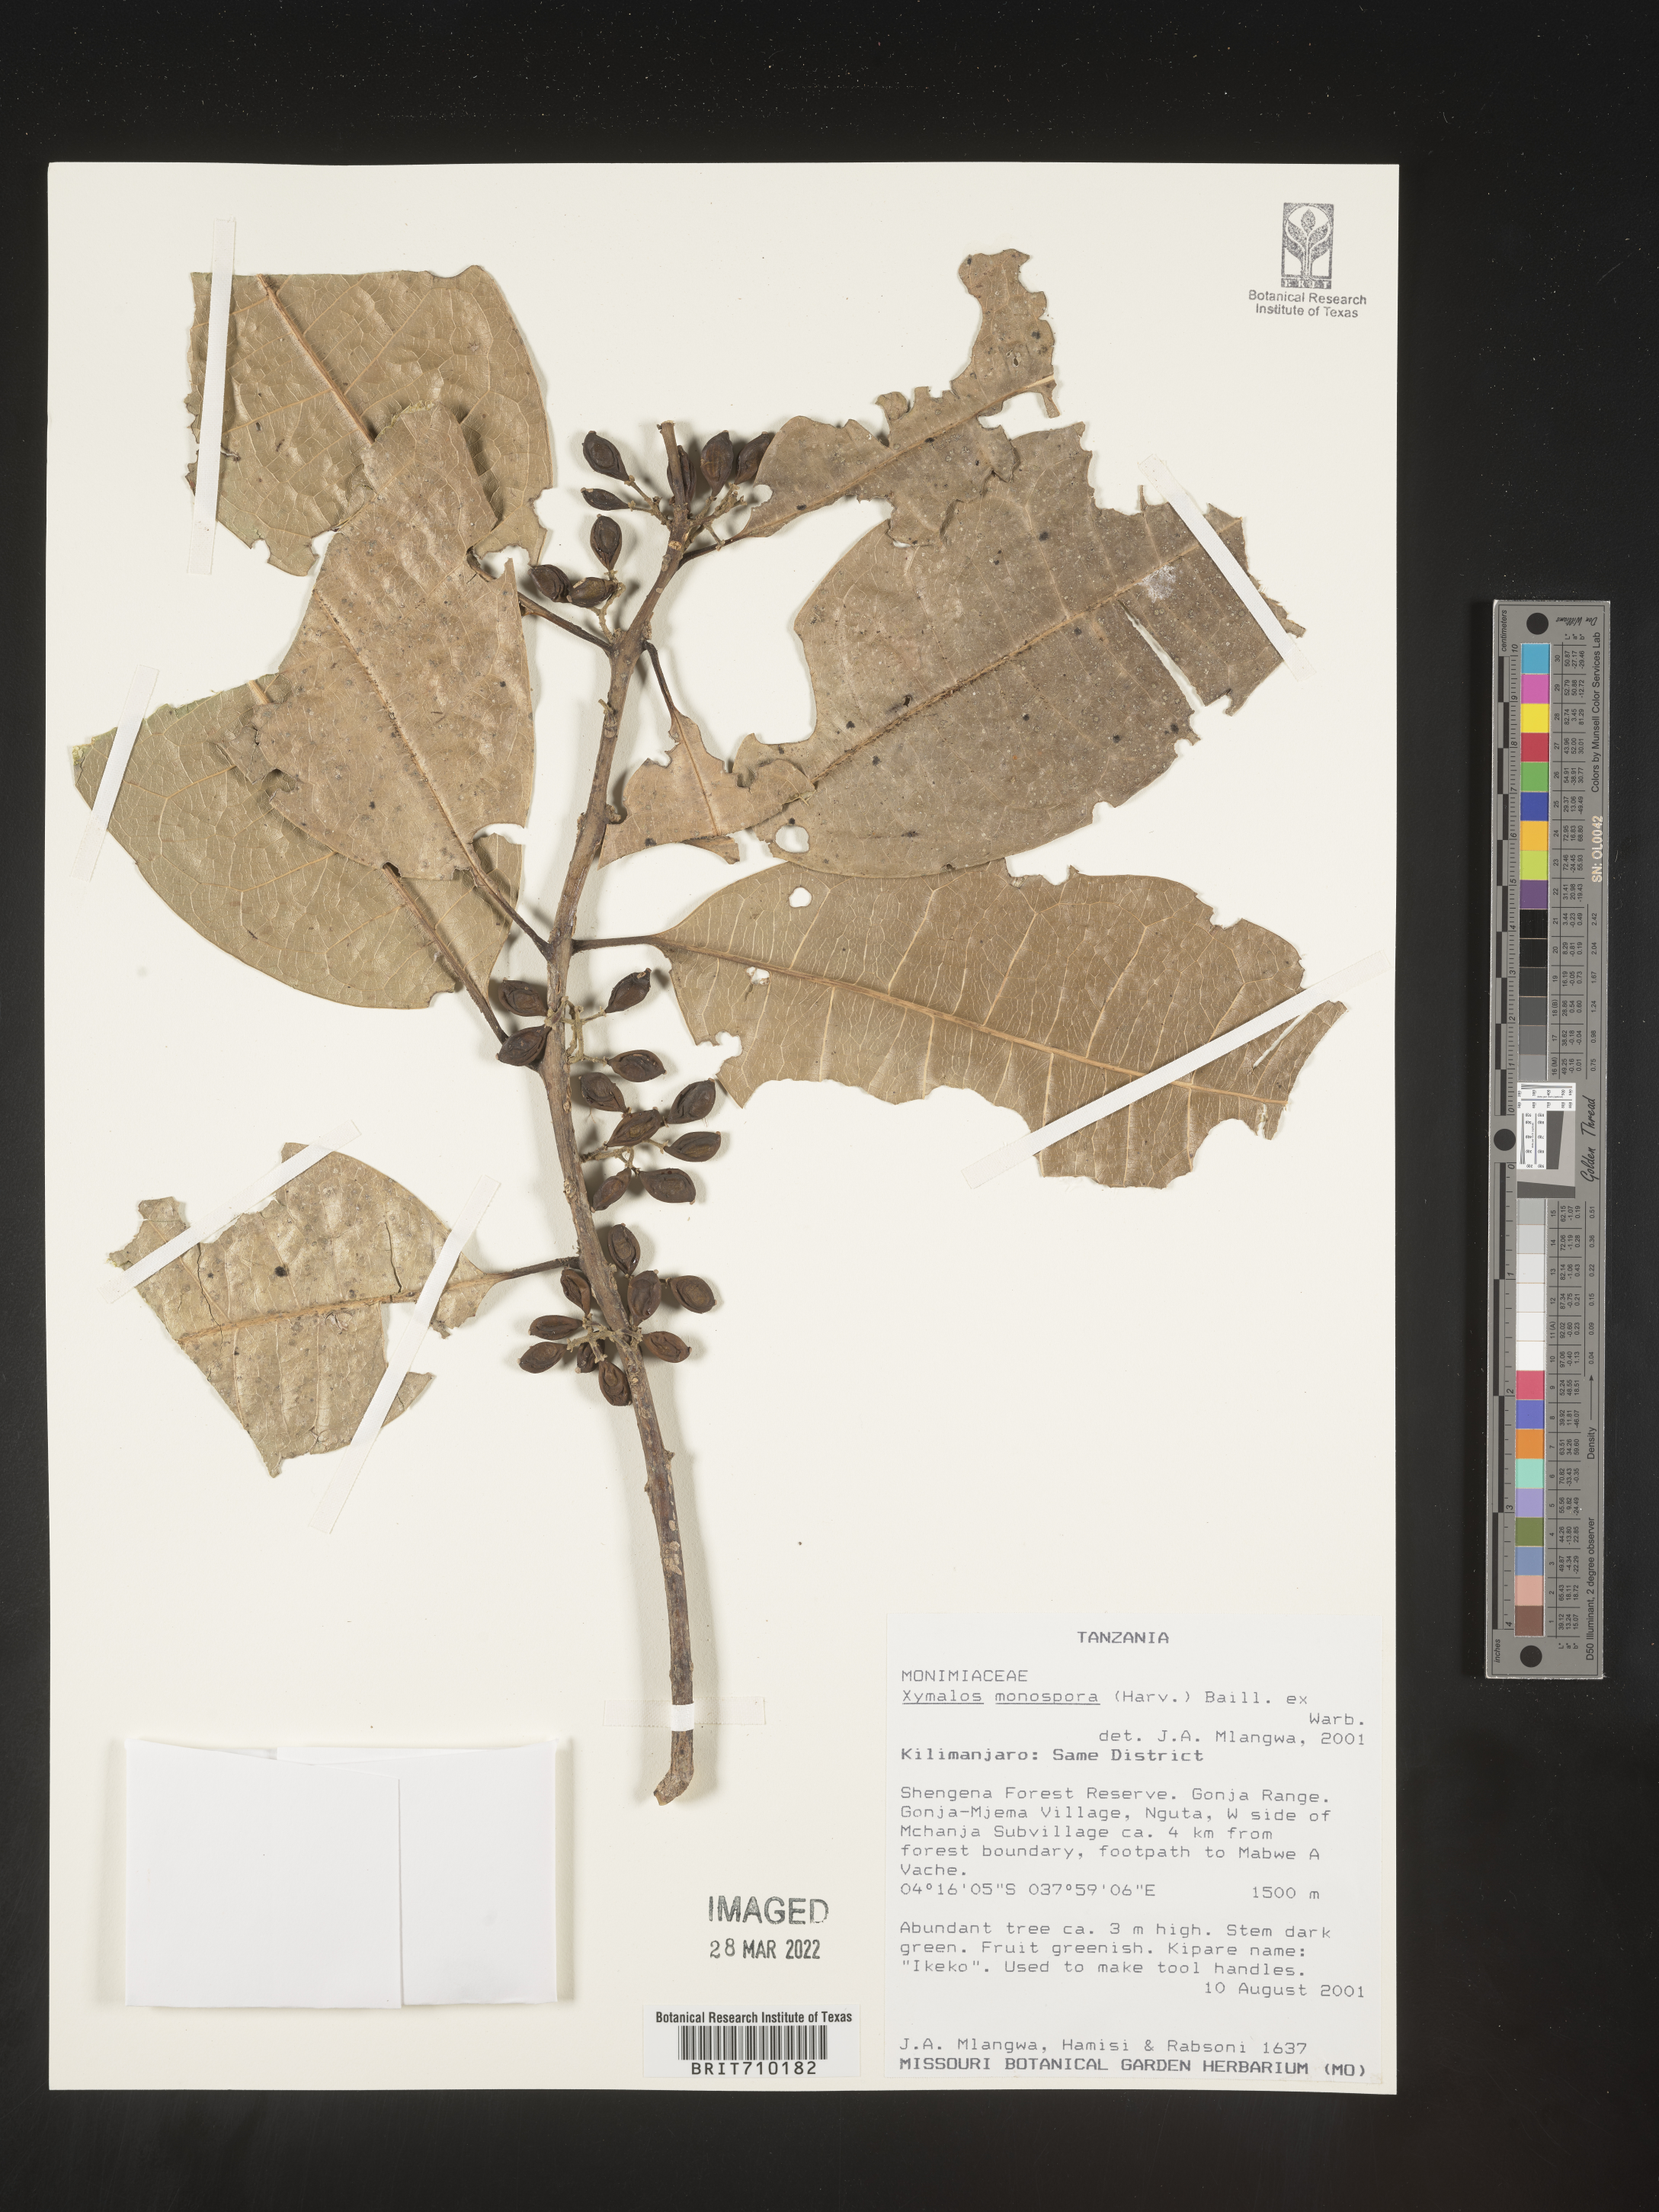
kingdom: Plantae
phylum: Tracheophyta
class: Magnoliopsida
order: Laurales
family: Monimiaceae
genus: Xymalos
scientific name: Xymalos
